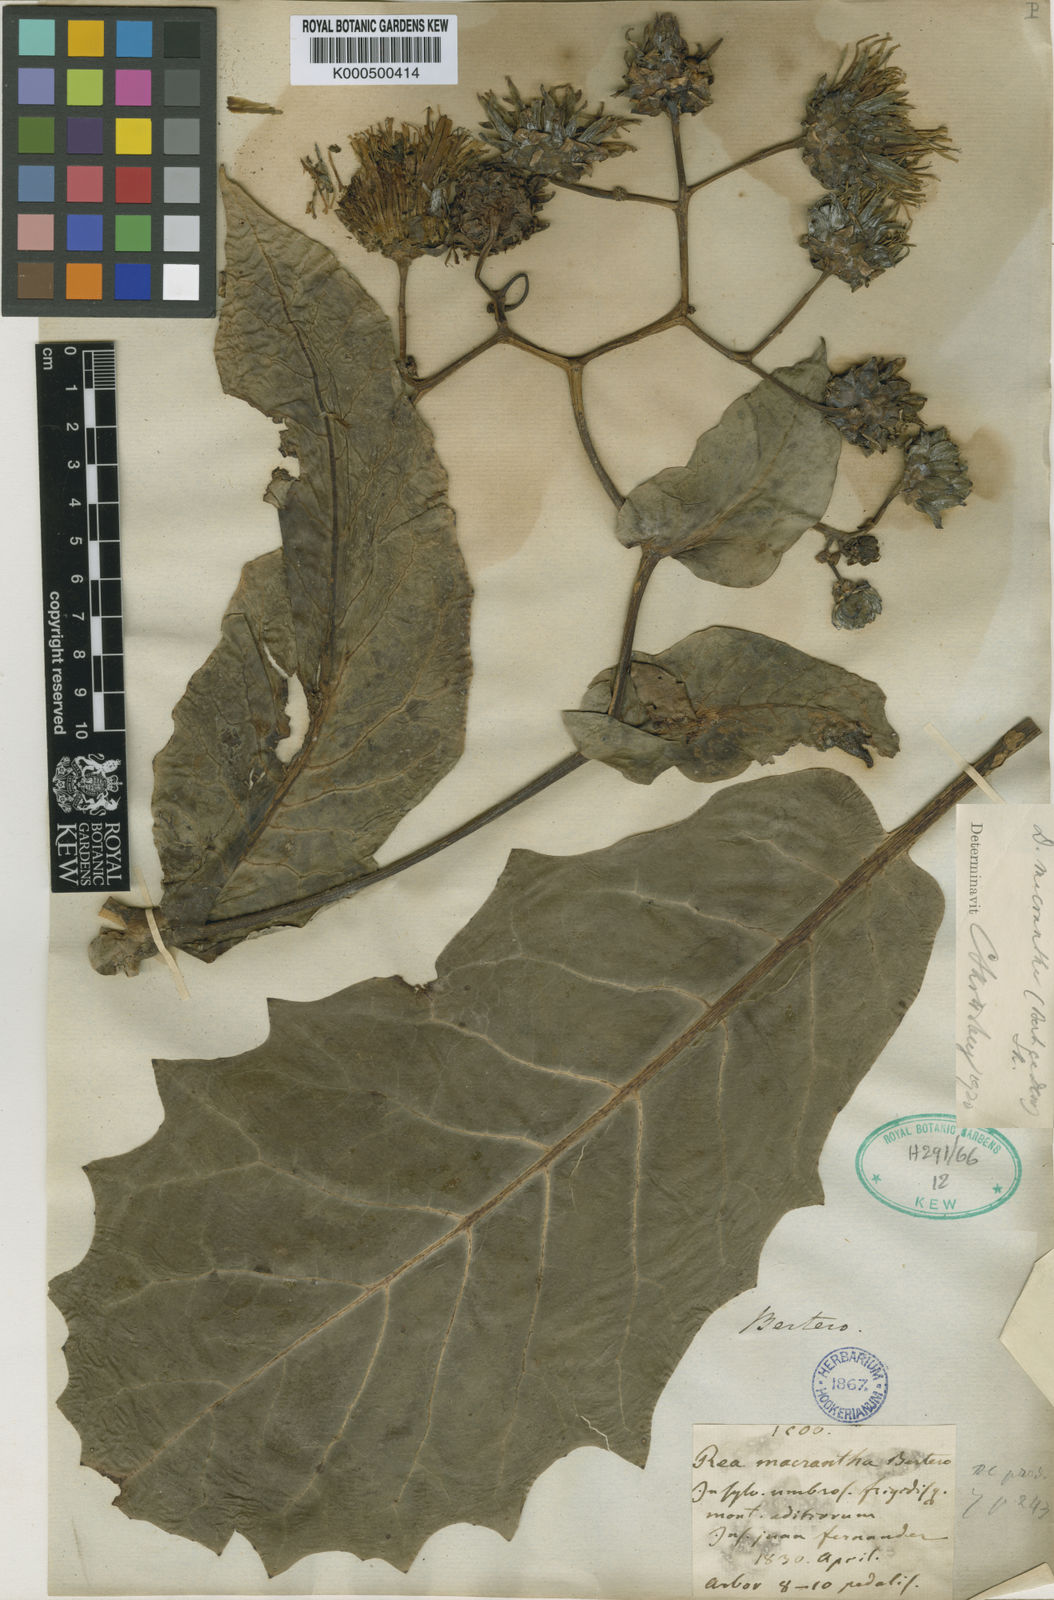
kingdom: Plantae
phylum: Tracheophyta
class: Magnoliopsida
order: Asterales
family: Asteraceae
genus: Sonchus
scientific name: Sonchus sinuatus
